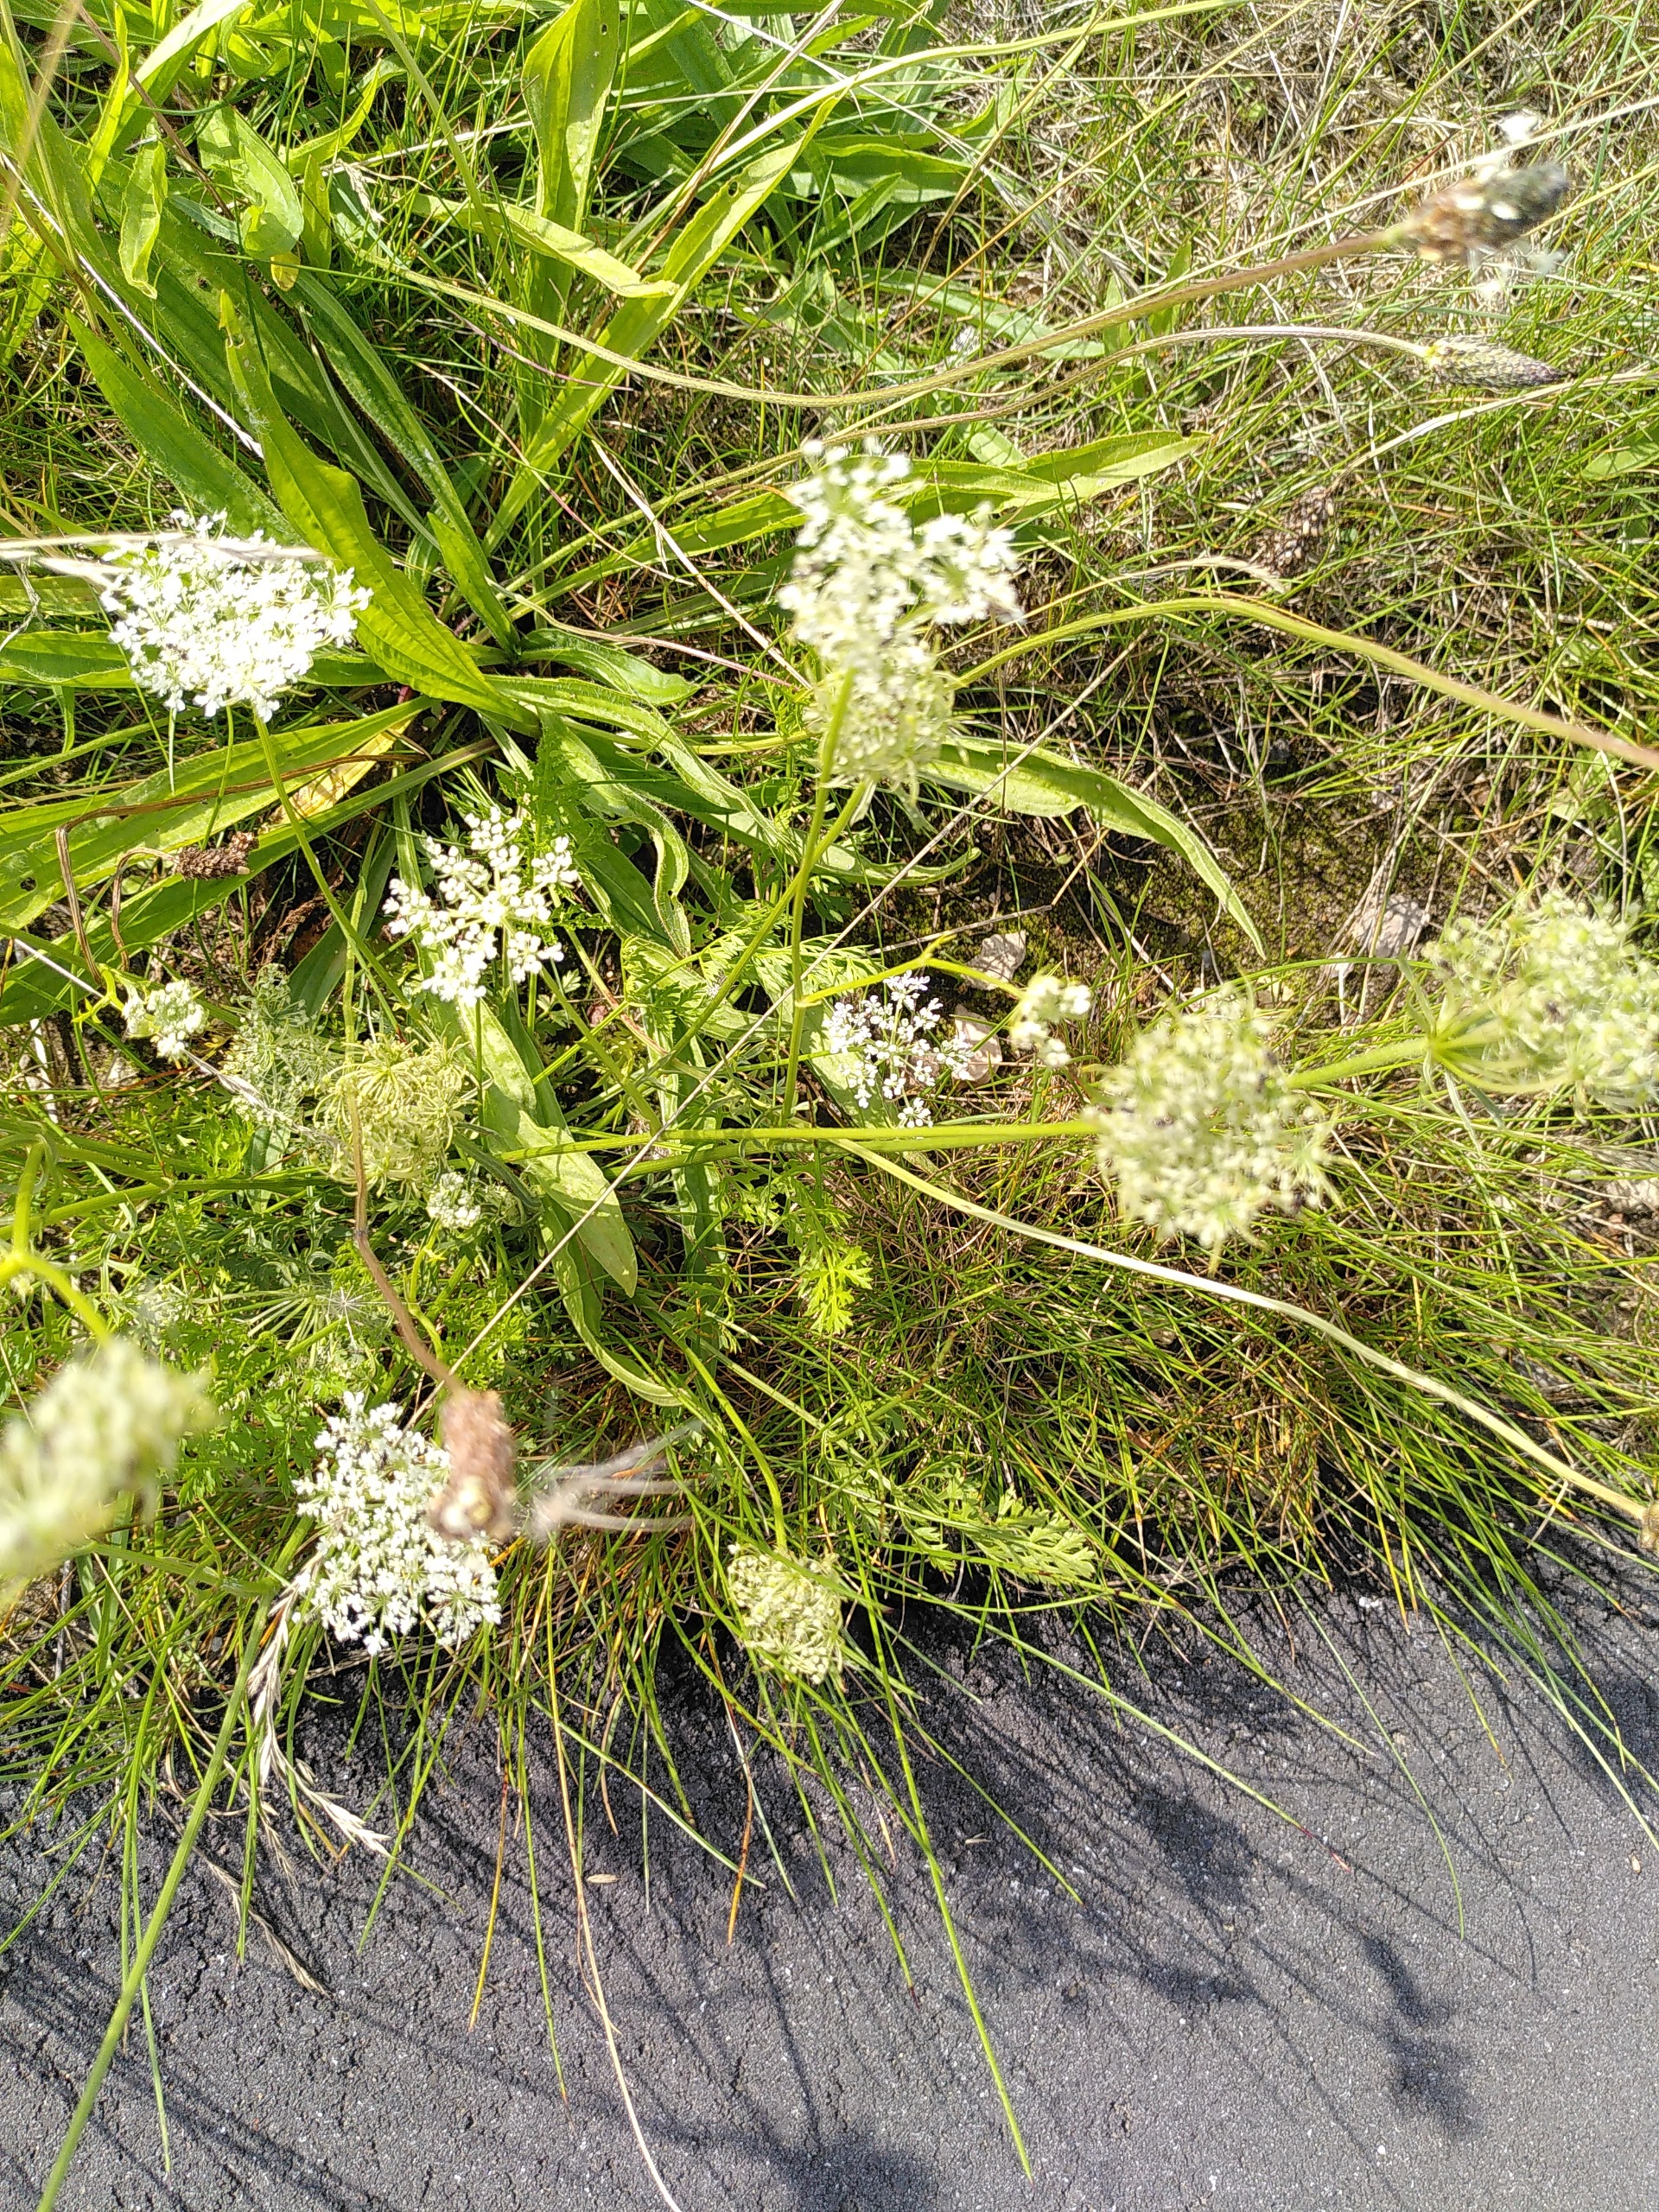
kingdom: Plantae
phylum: Tracheophyta
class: Magnoliopsida
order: Apiales
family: Apiaceae
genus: Daucus
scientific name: Daucus carota
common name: Vild gulerod
